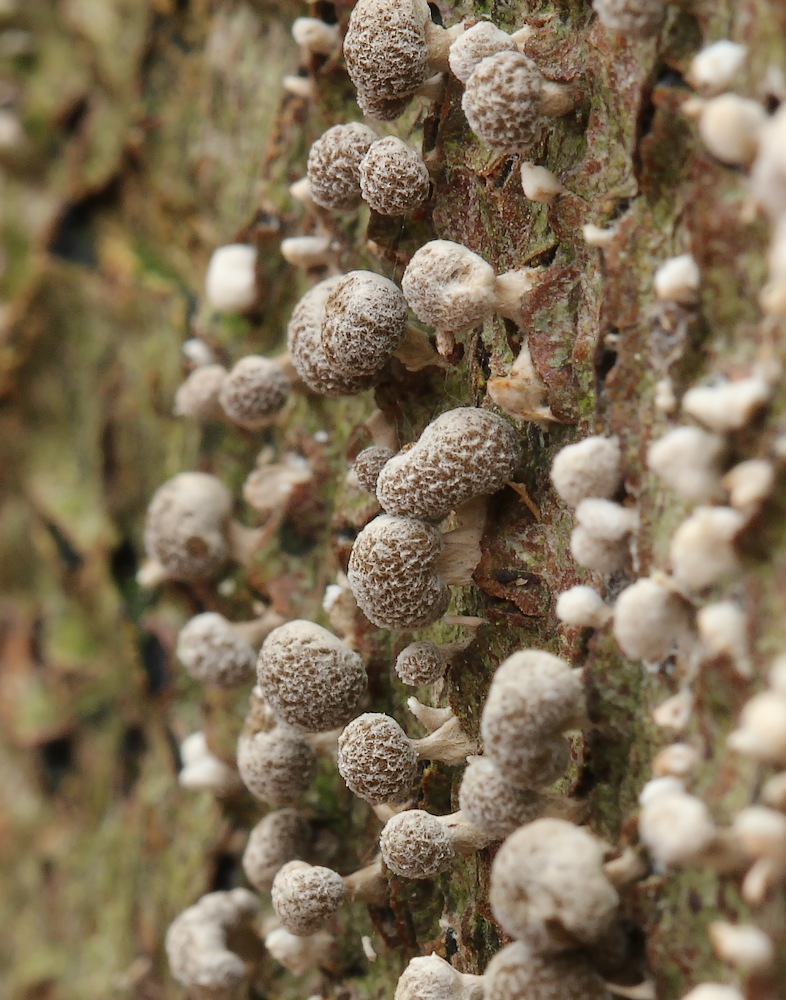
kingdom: Fungi
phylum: Basidiomycota
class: Atractiellomycetes
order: Atractiellales
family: Phleogenaceae
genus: Phleogena
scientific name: Phleogena faginea
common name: pudderkølle
